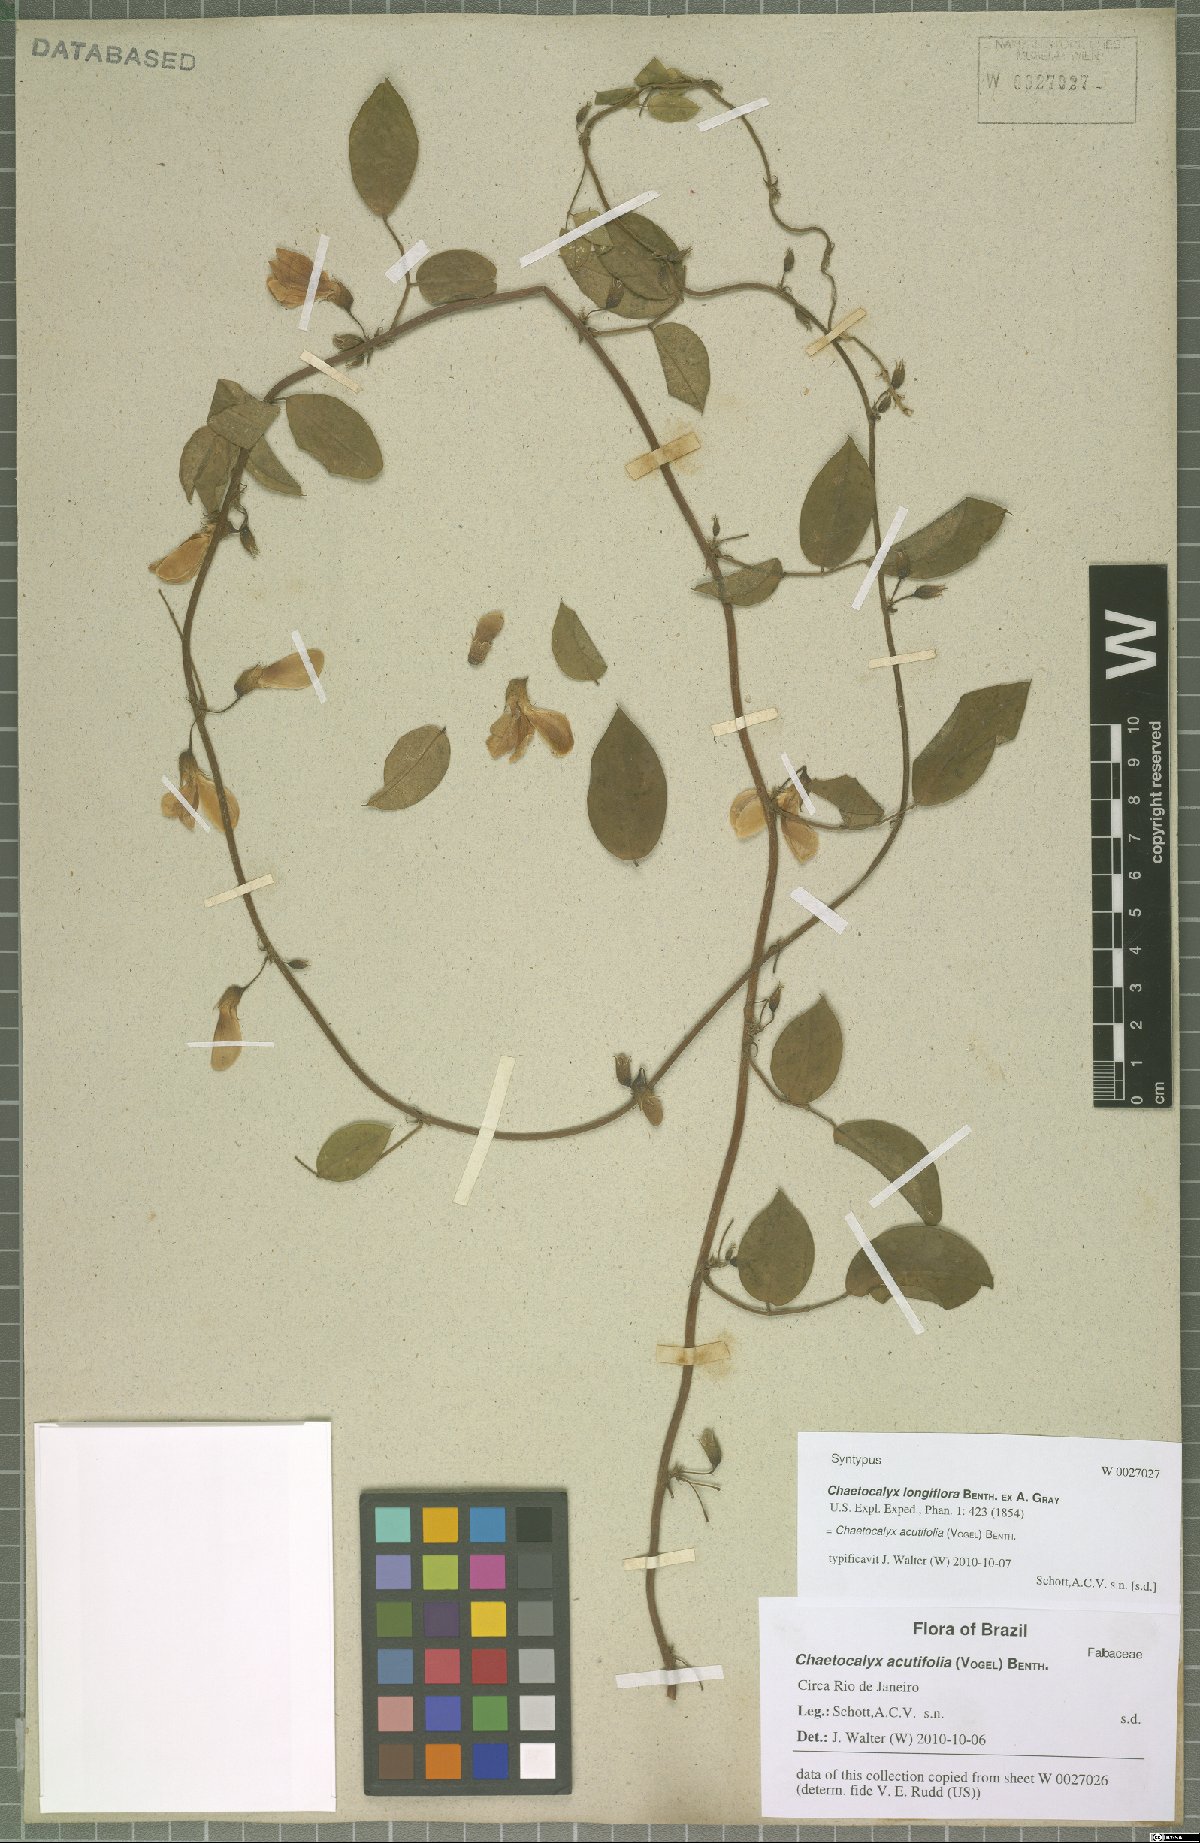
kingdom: Plantae
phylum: Tracheophyta
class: Magnoliopsida
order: Fabales
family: Fabaceae
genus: Nissolia
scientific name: Nissolia acutifolia
